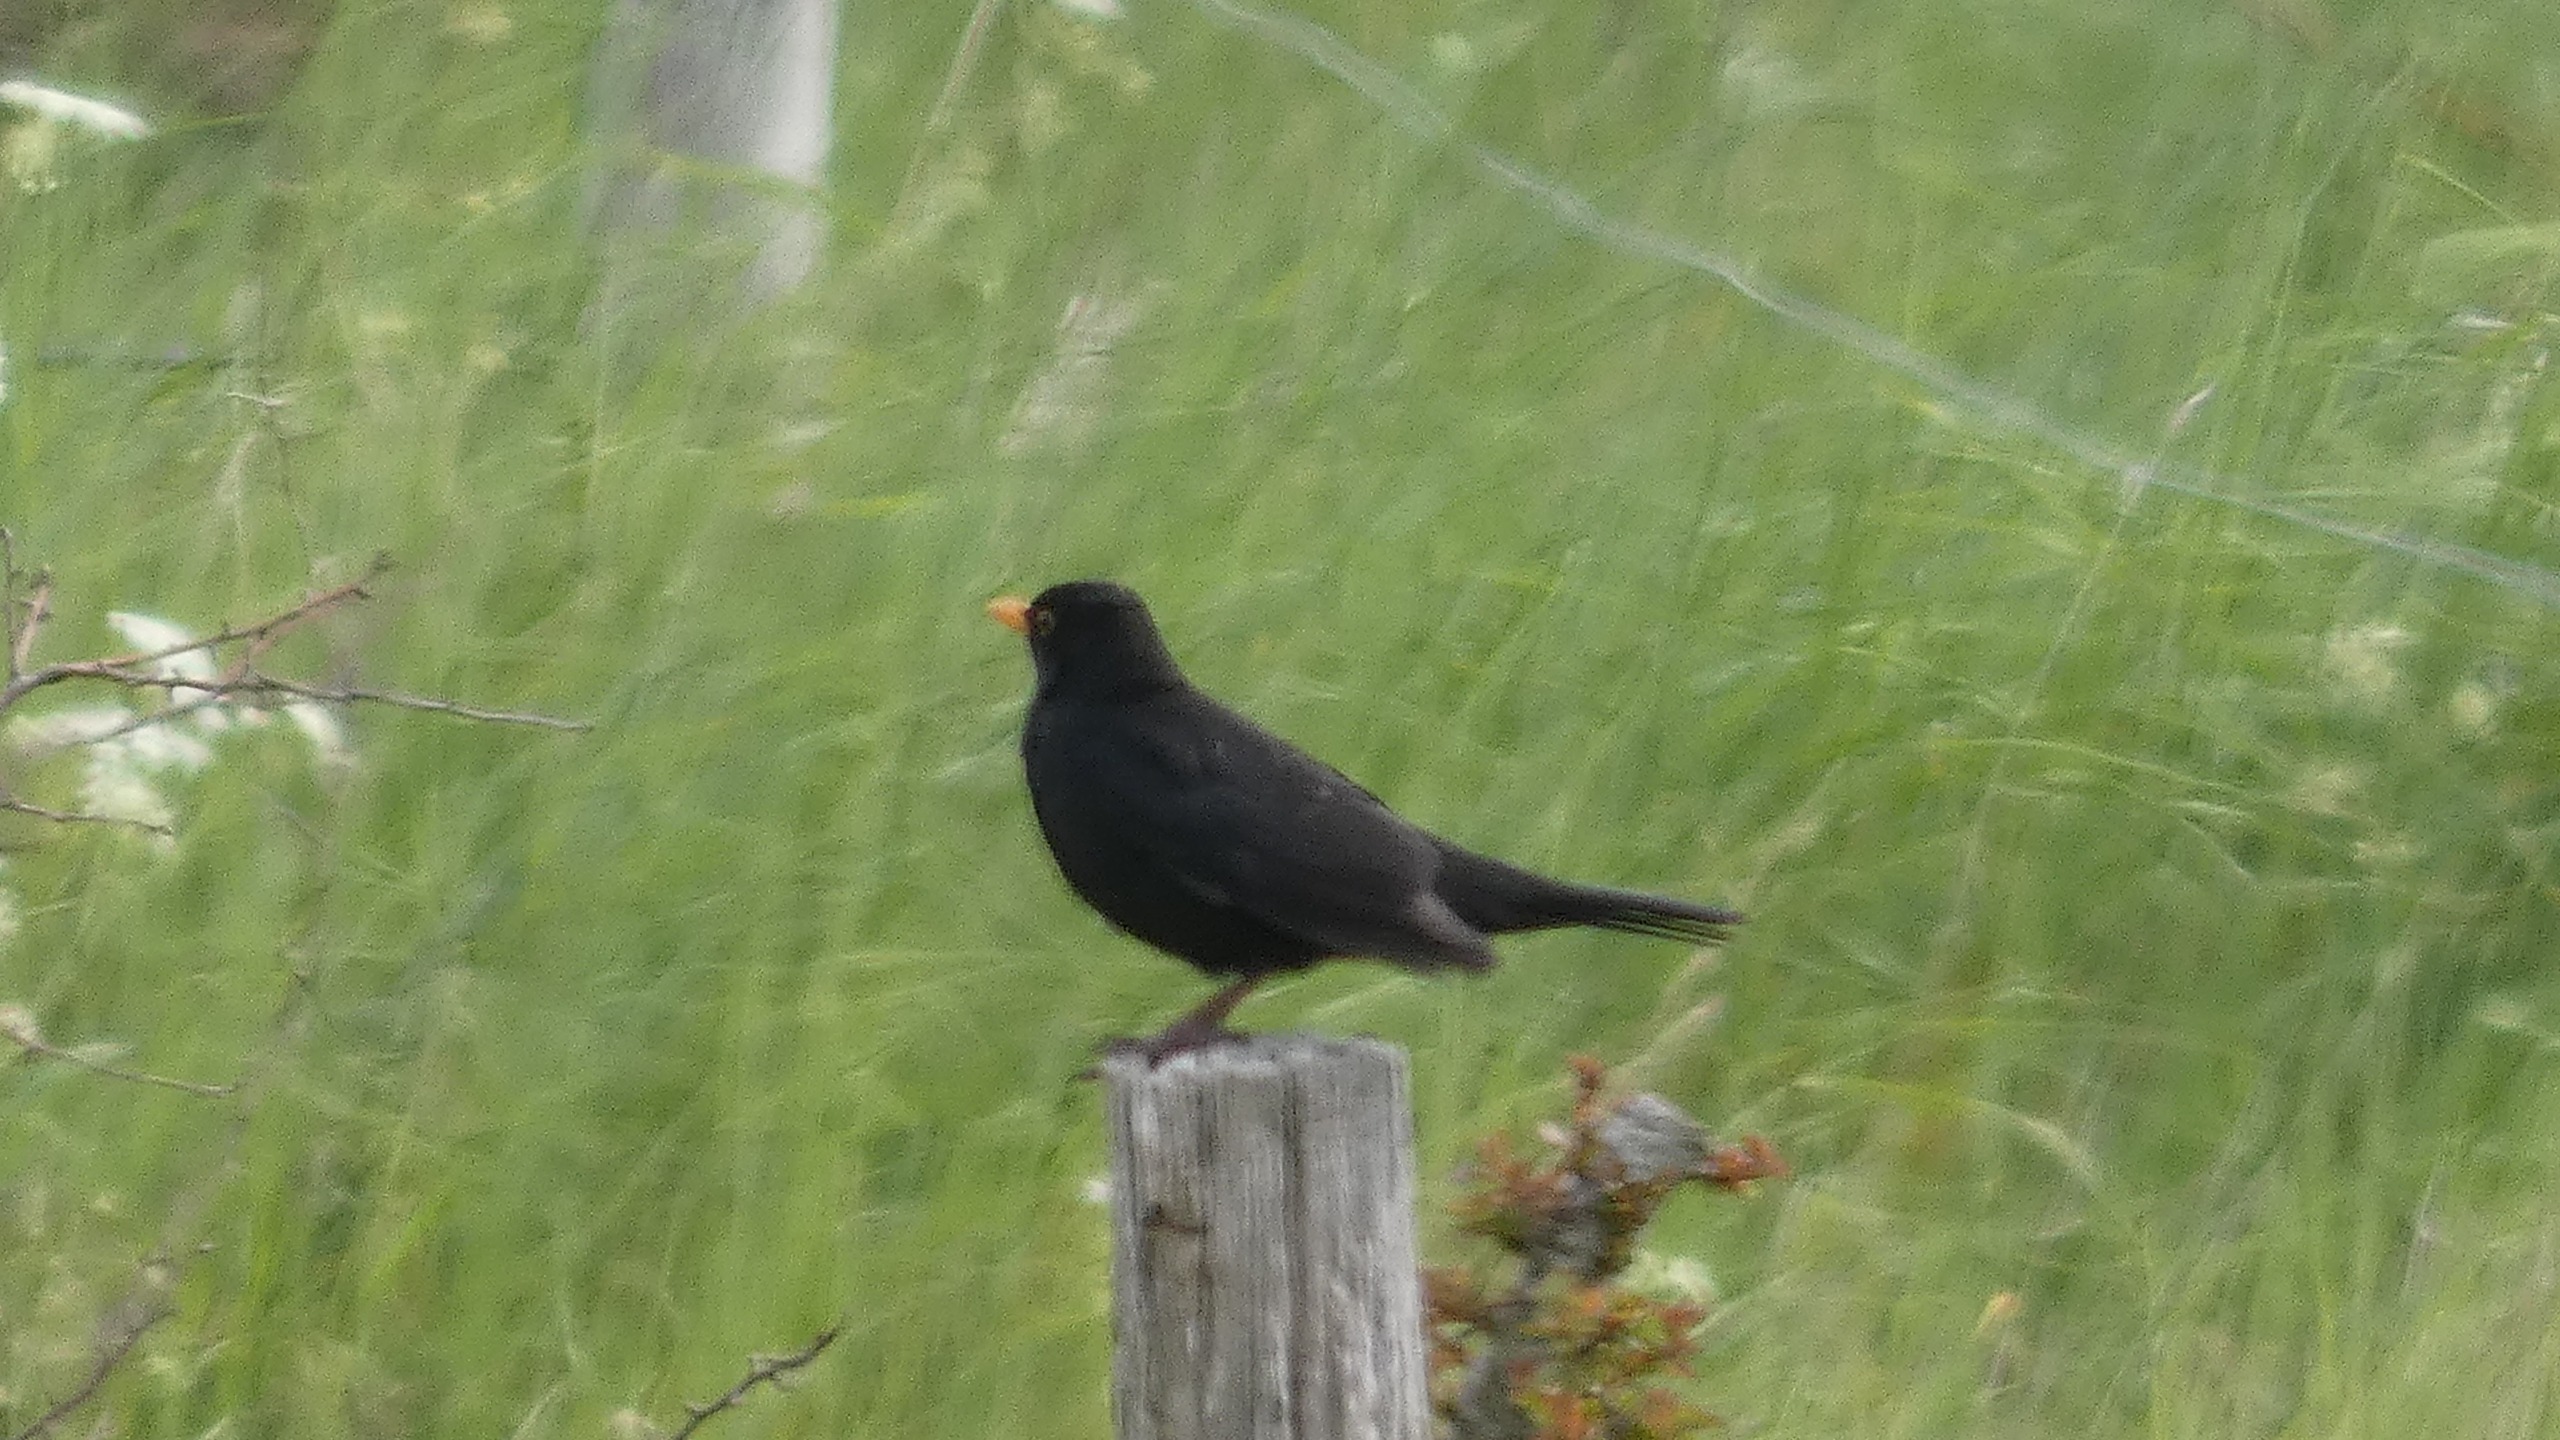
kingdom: Animalia
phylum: Chordata
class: Aves
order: Passeriformes
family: Turdidae
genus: Turdus
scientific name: Turdus merula
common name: Solsort
